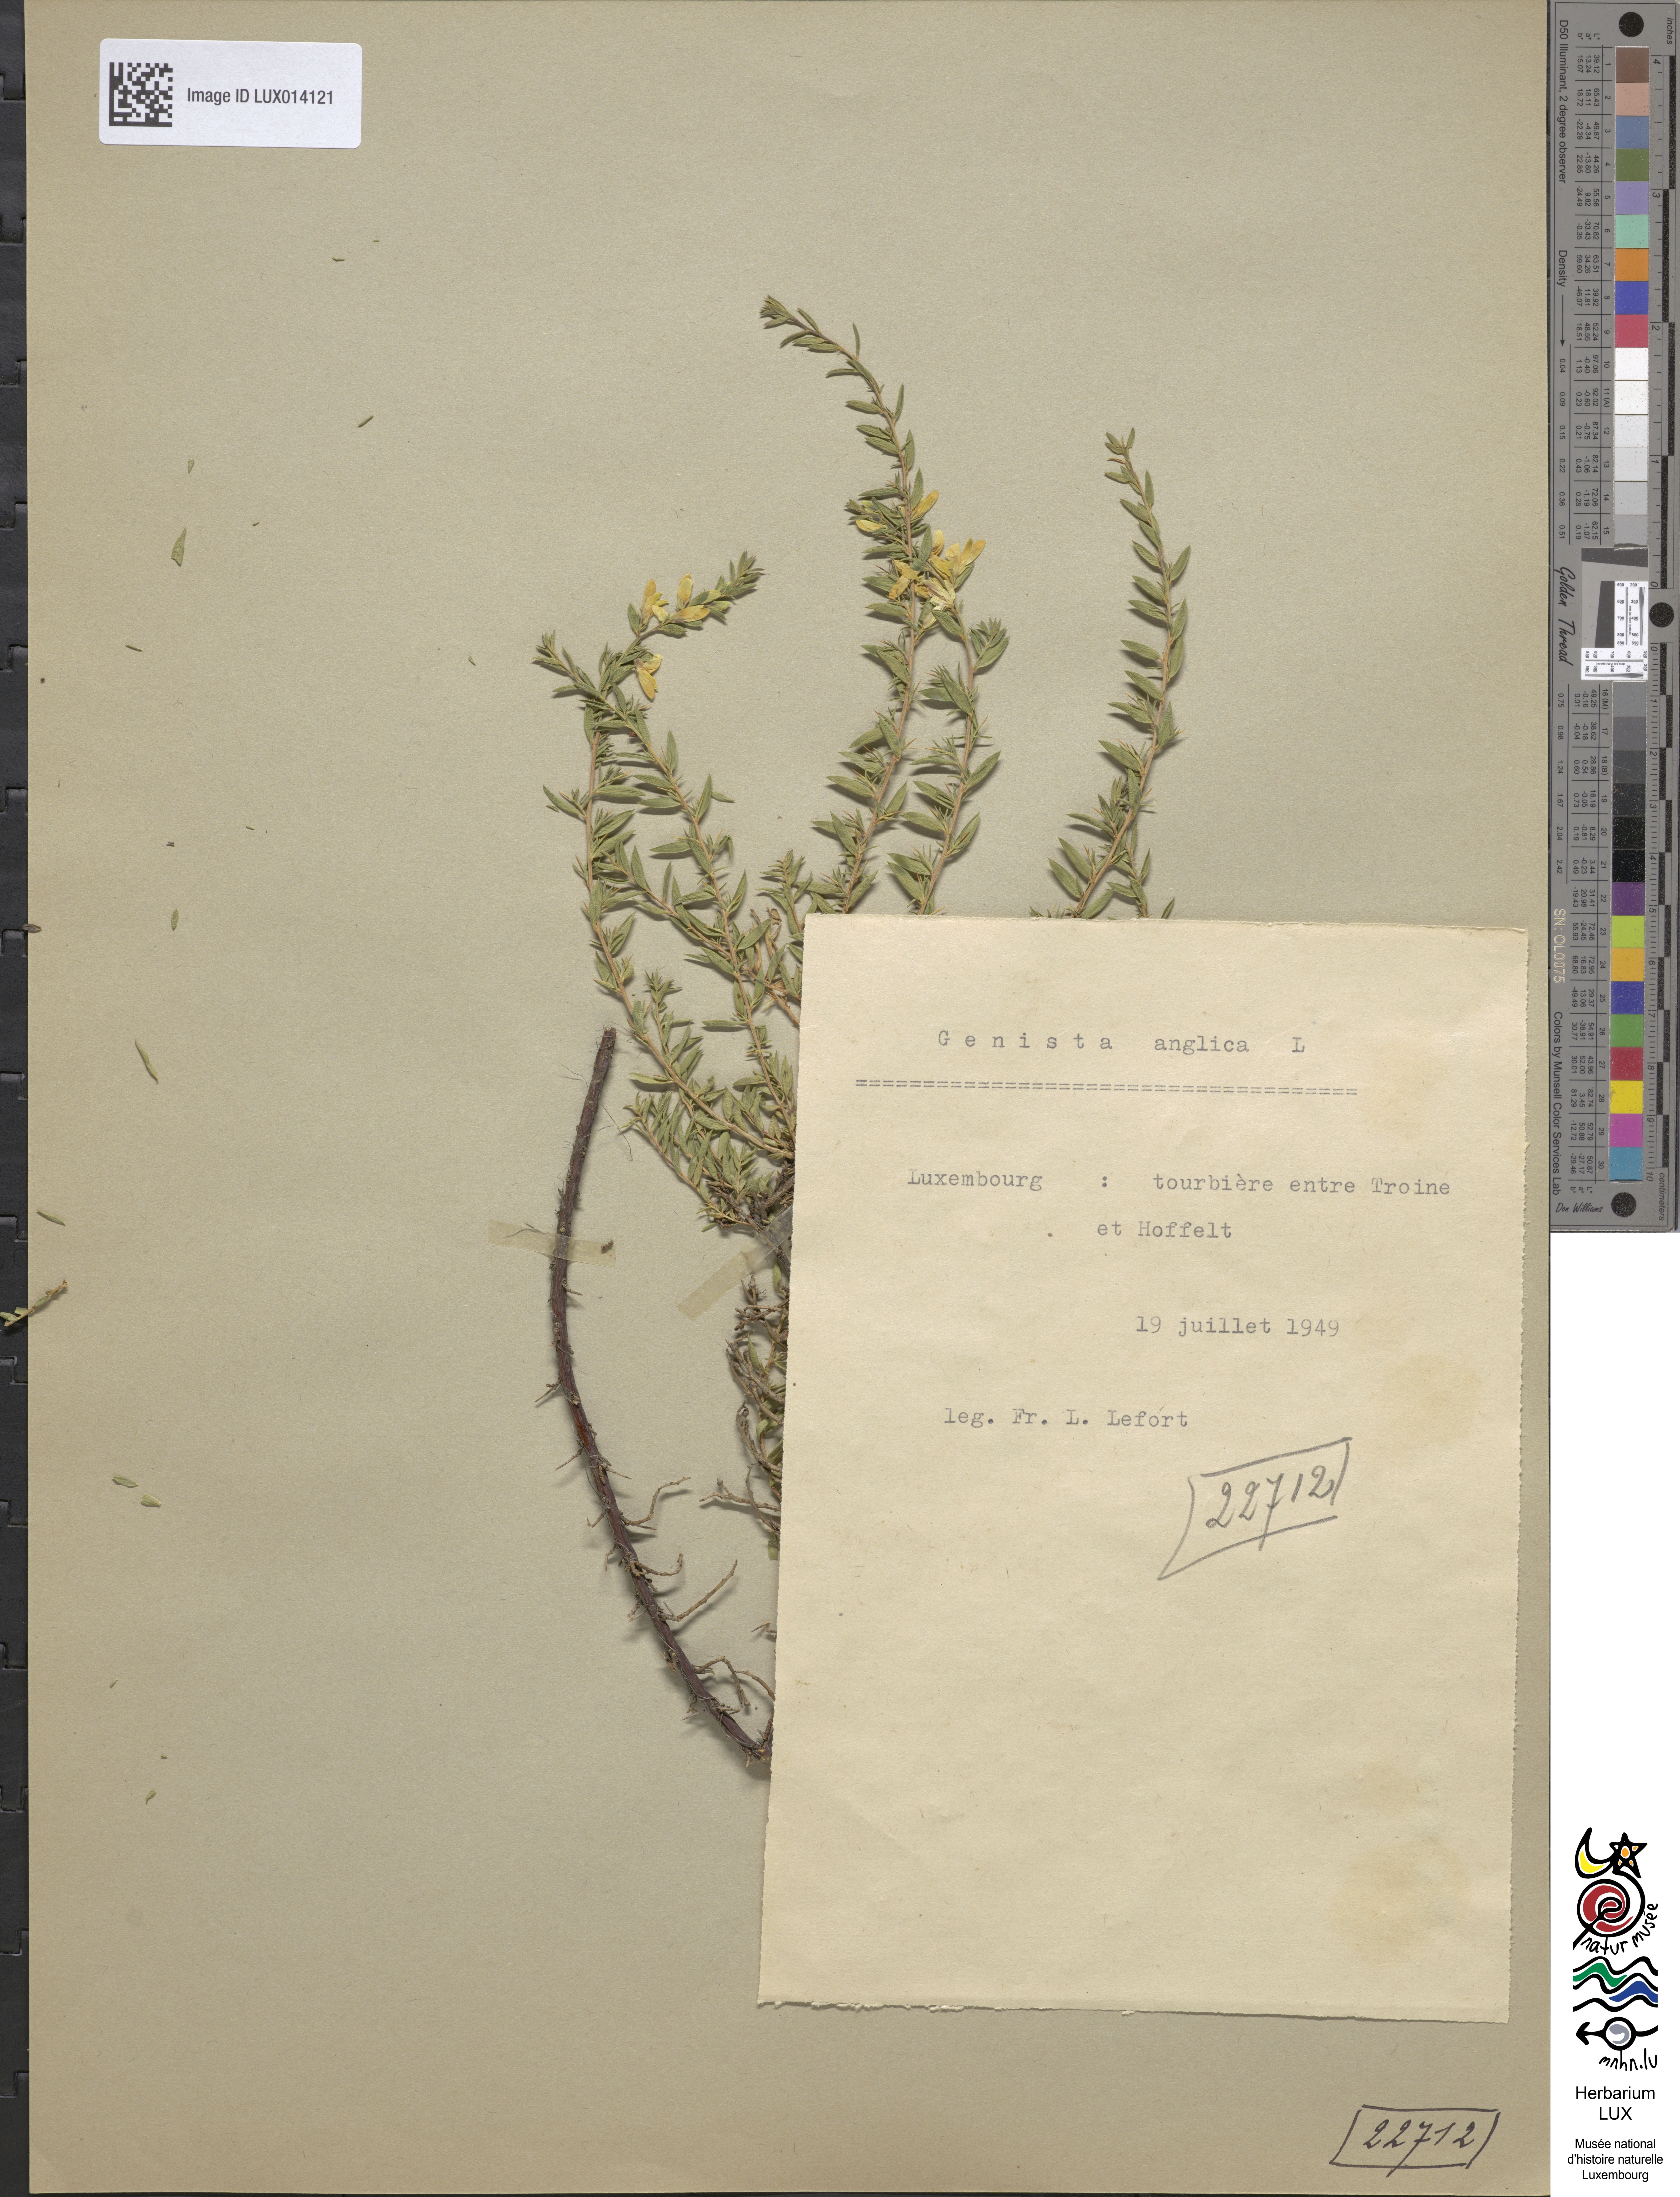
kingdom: Plantae
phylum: Tracheophyta
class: Magnoliopsida
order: Fabales
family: Fabaceae
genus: Genista
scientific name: Genista anglica
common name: Petty whin
